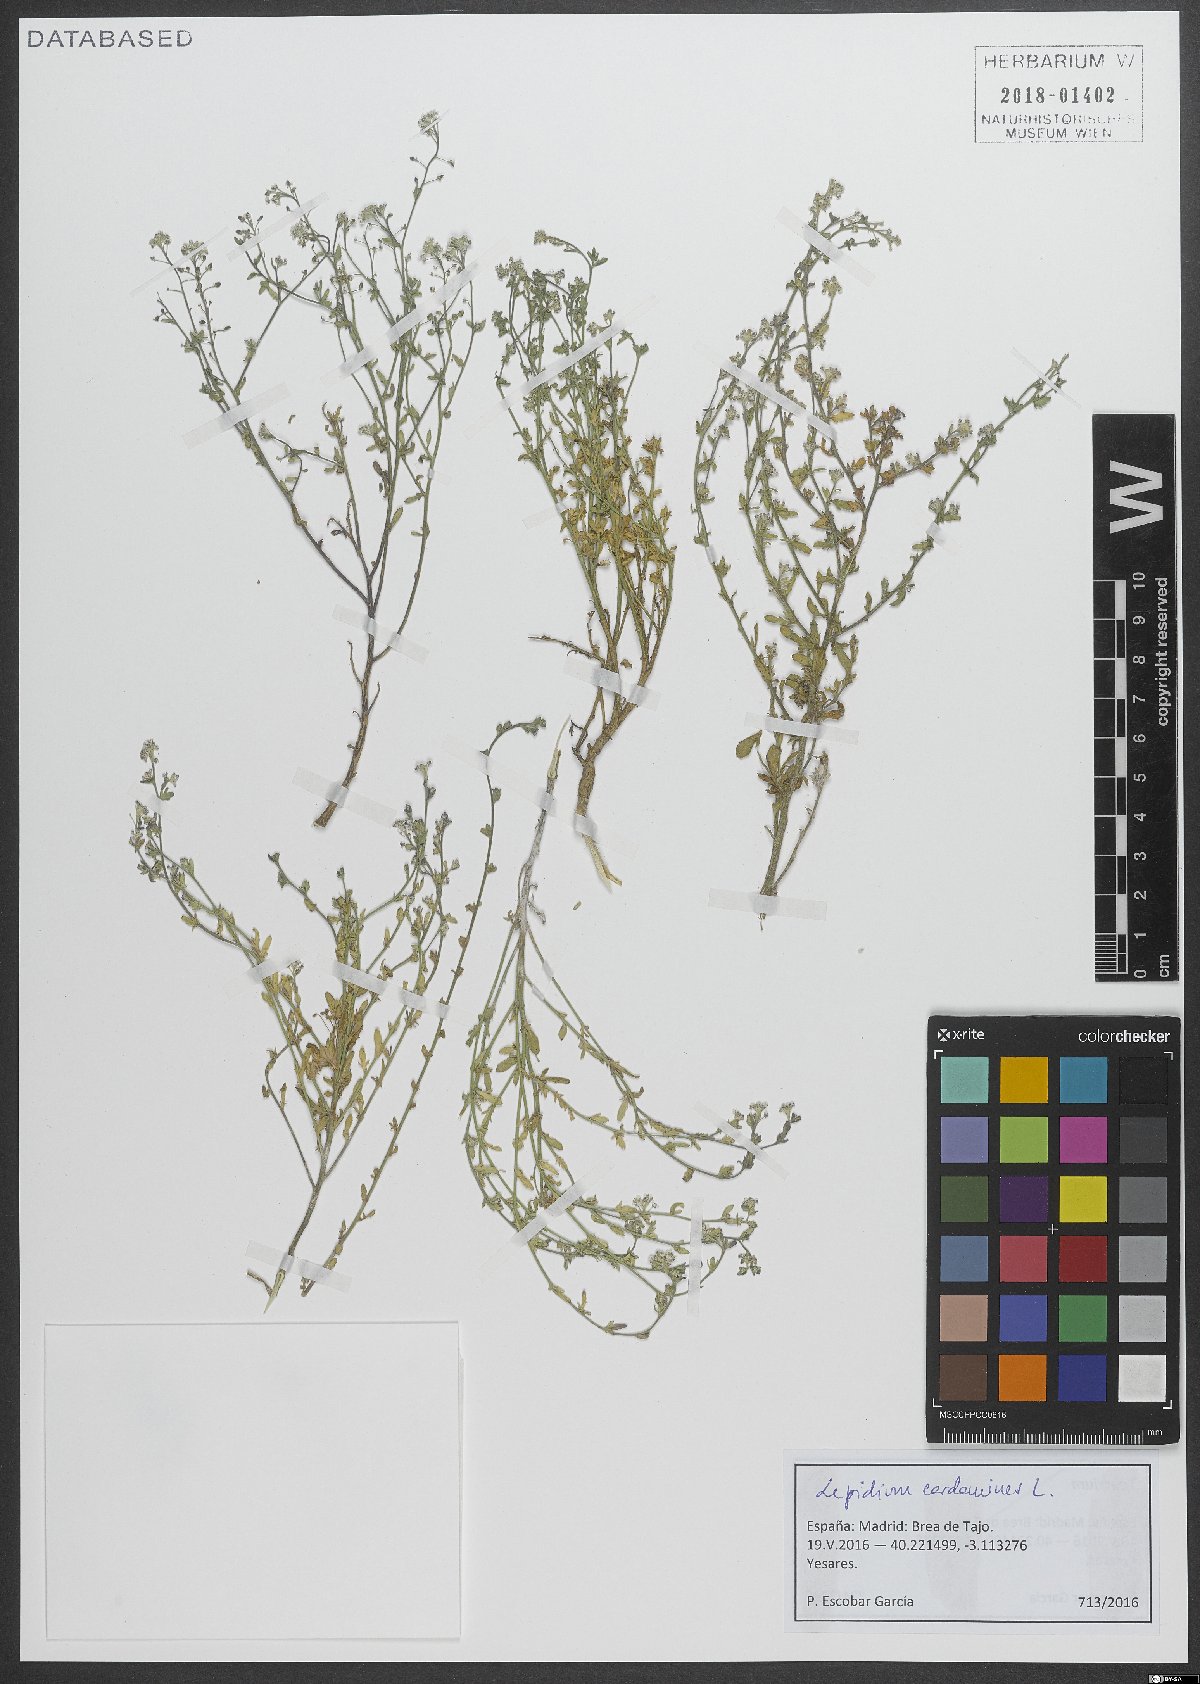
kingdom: Plantae
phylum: Tracheophyta
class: Magnoliopsida
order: Brassicales
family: Brassicaceae
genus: Lepidium
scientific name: Lepidium cardamine
